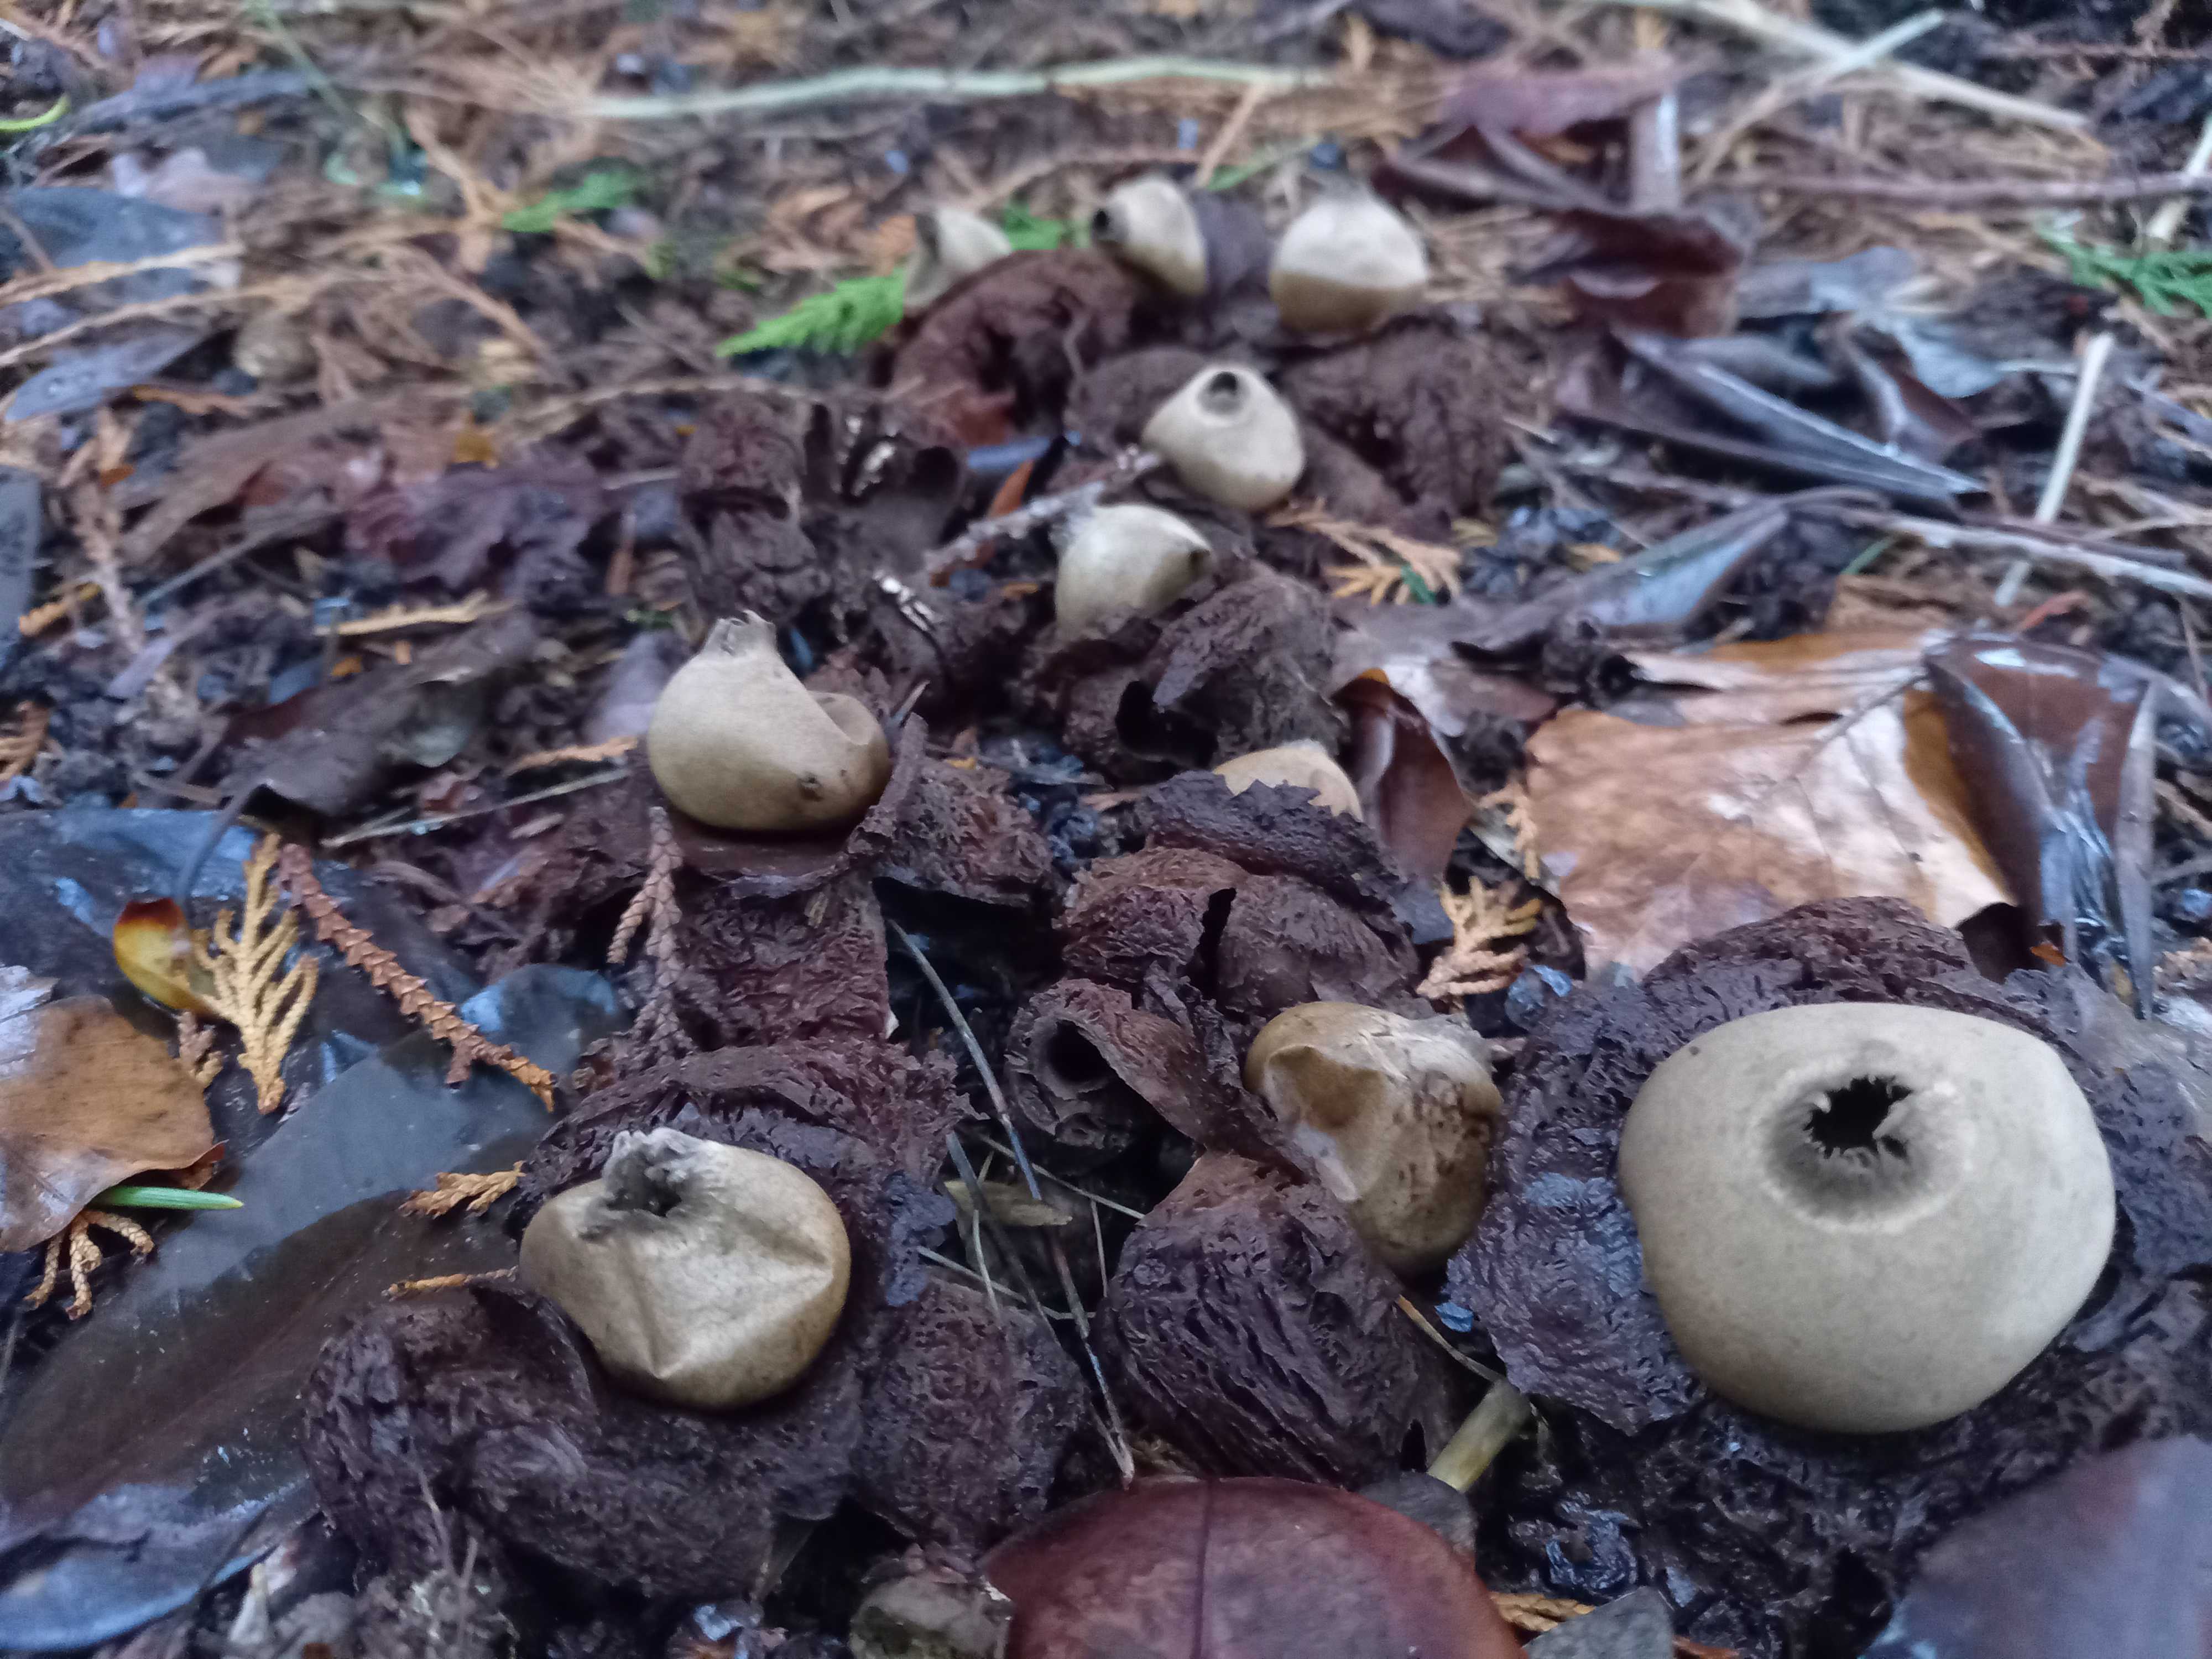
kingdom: Fungi
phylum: Basidiomycota
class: Agaricomycetes
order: Geastrales
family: Geastraceae
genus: Geastrum
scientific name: Geastrum michelianum
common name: kødet stjernebold
